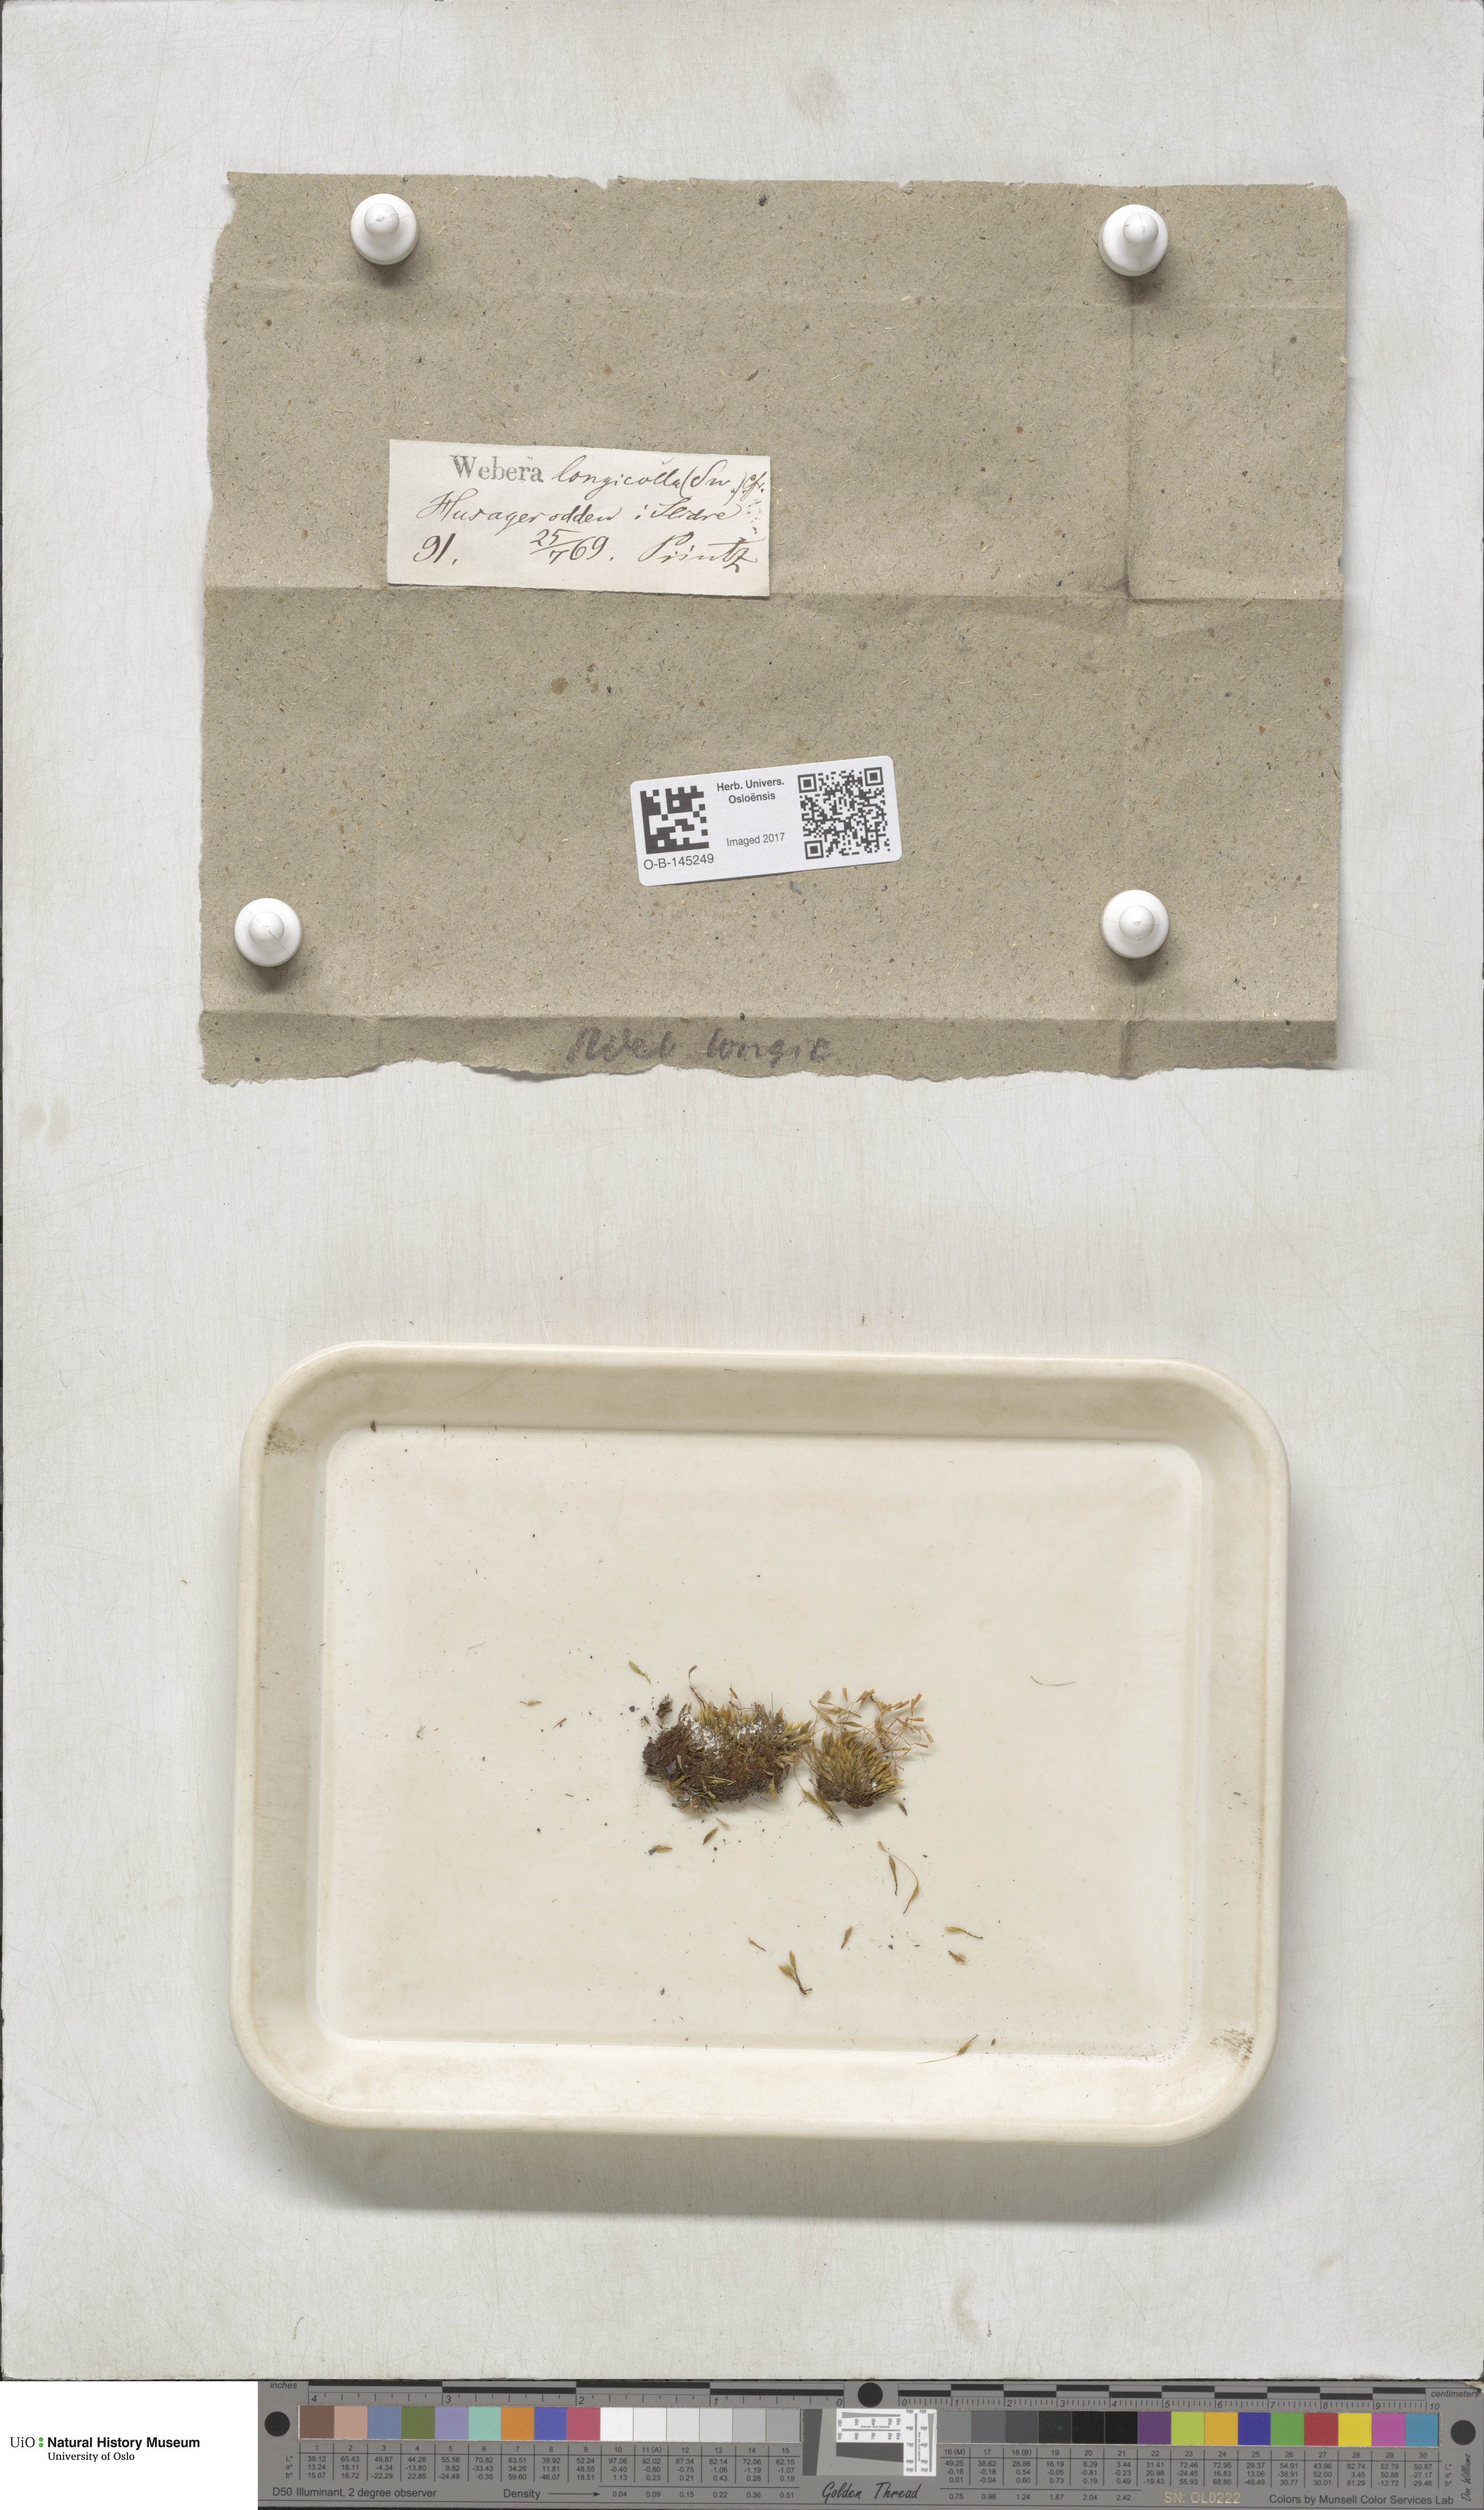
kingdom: Plantae
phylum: Bryophyta
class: Bryopsida
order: Bryales
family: Mniaceae
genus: Pohlia
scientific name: Pohlia longicolla
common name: Long-necked nodding moss
